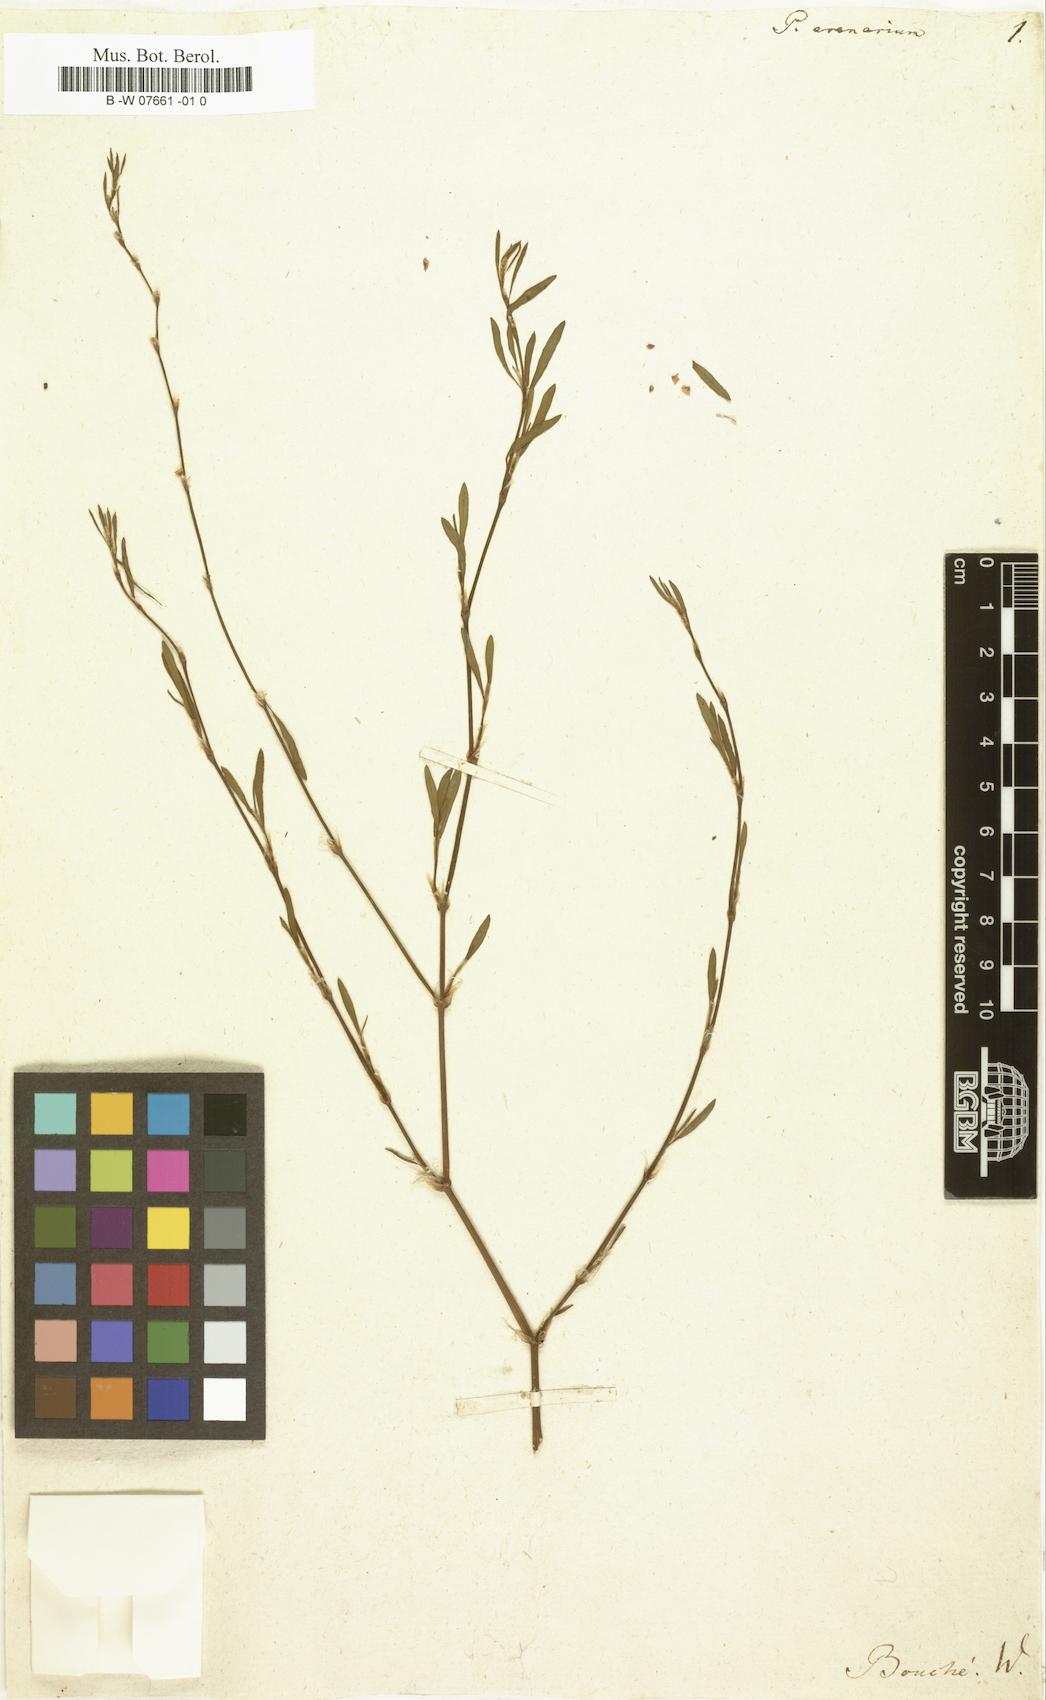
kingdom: Plantae
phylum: Tracheophyta
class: Magnoliopsida
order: Caryophyllales
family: Polygonaceae
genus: Polygonum
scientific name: Polygonum arenarium
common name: Lesser red-knotgrass
